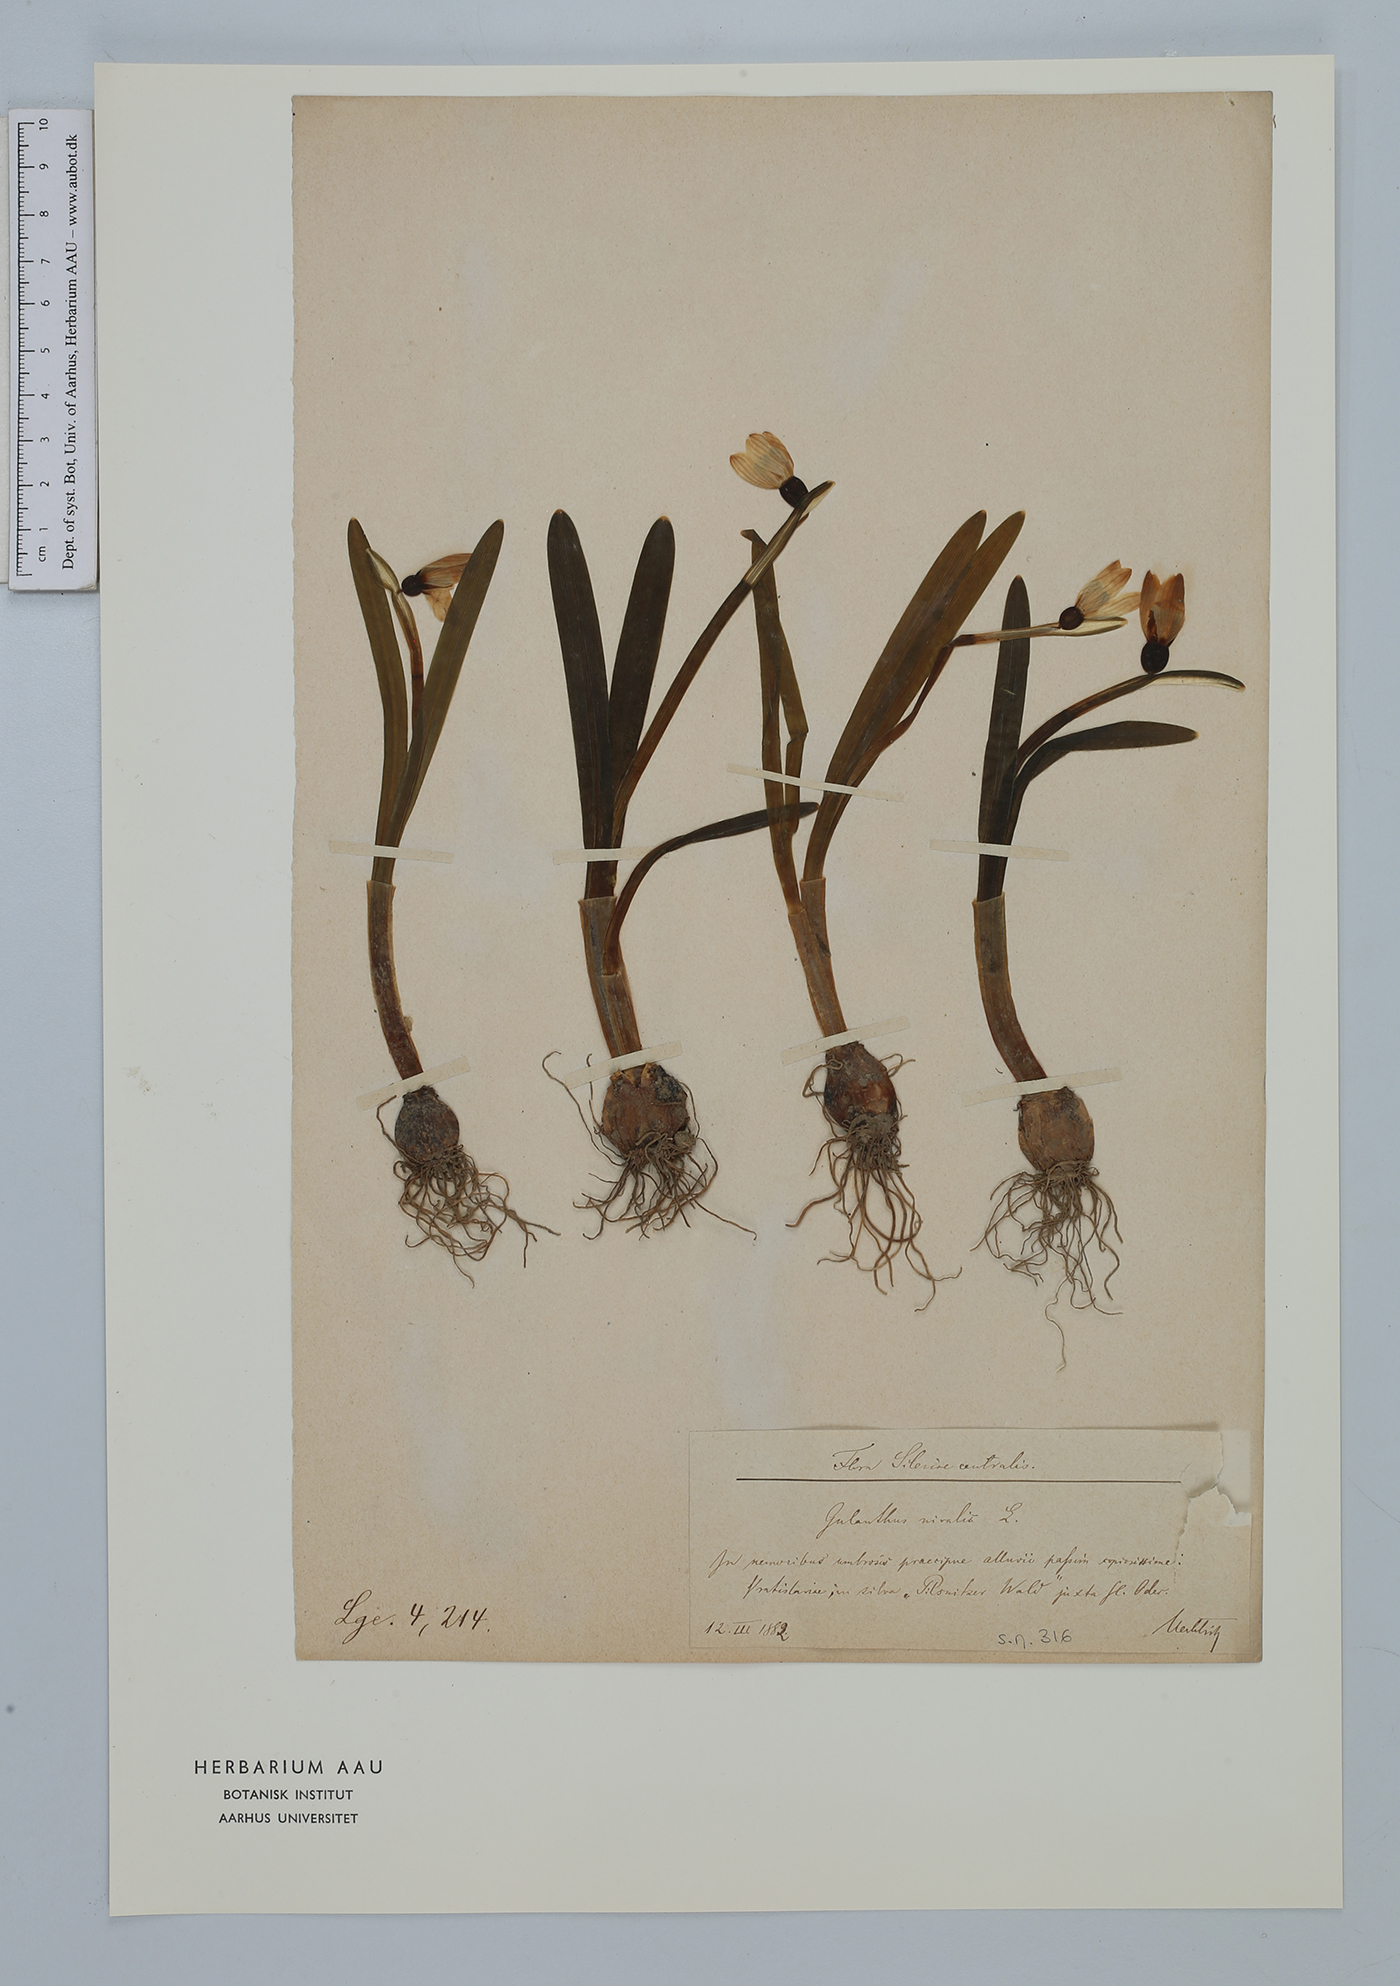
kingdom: Plantae
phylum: Tracheophyta
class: Liliopsida
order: Asparagales
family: Amaryllidaceae
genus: Galanthus
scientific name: Galanthus nivalis
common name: Snowdrop
